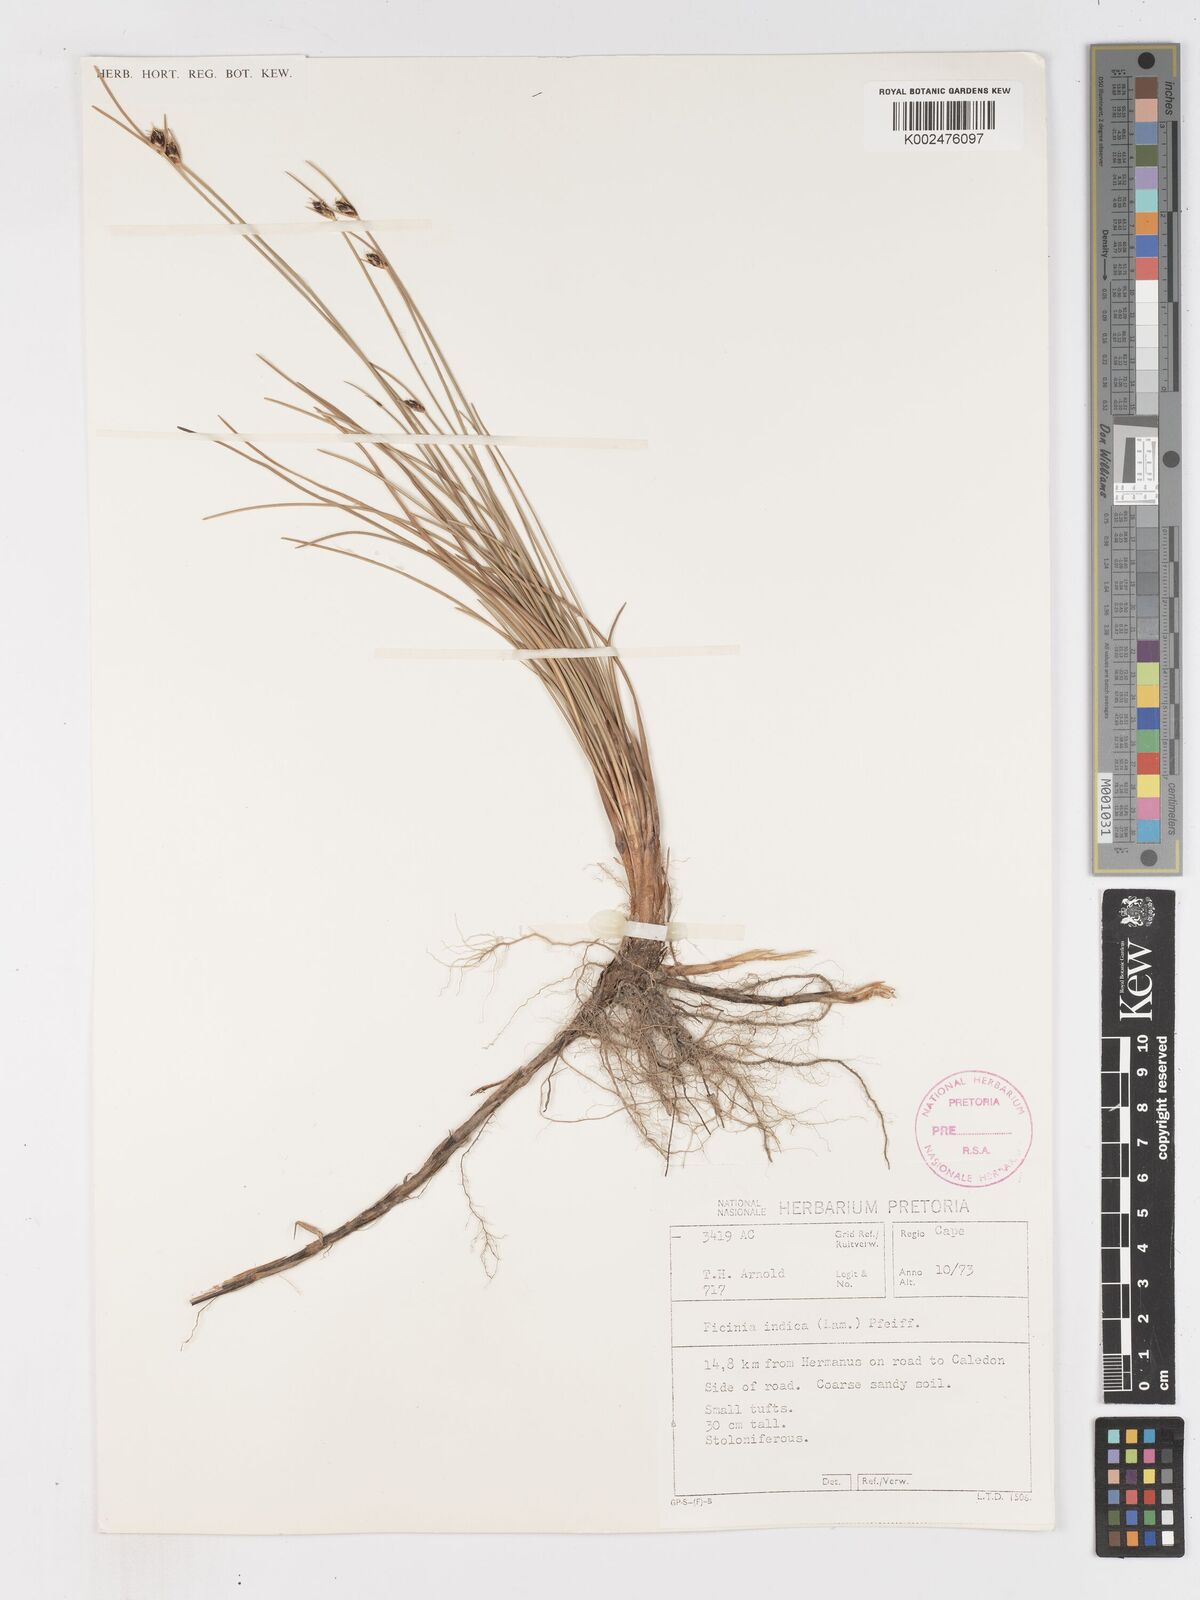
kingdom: Plantae
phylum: Tracheophyta
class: Liliopsida
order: Poales
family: Cyperaceae
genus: Ficinia
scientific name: Ficinia indica
